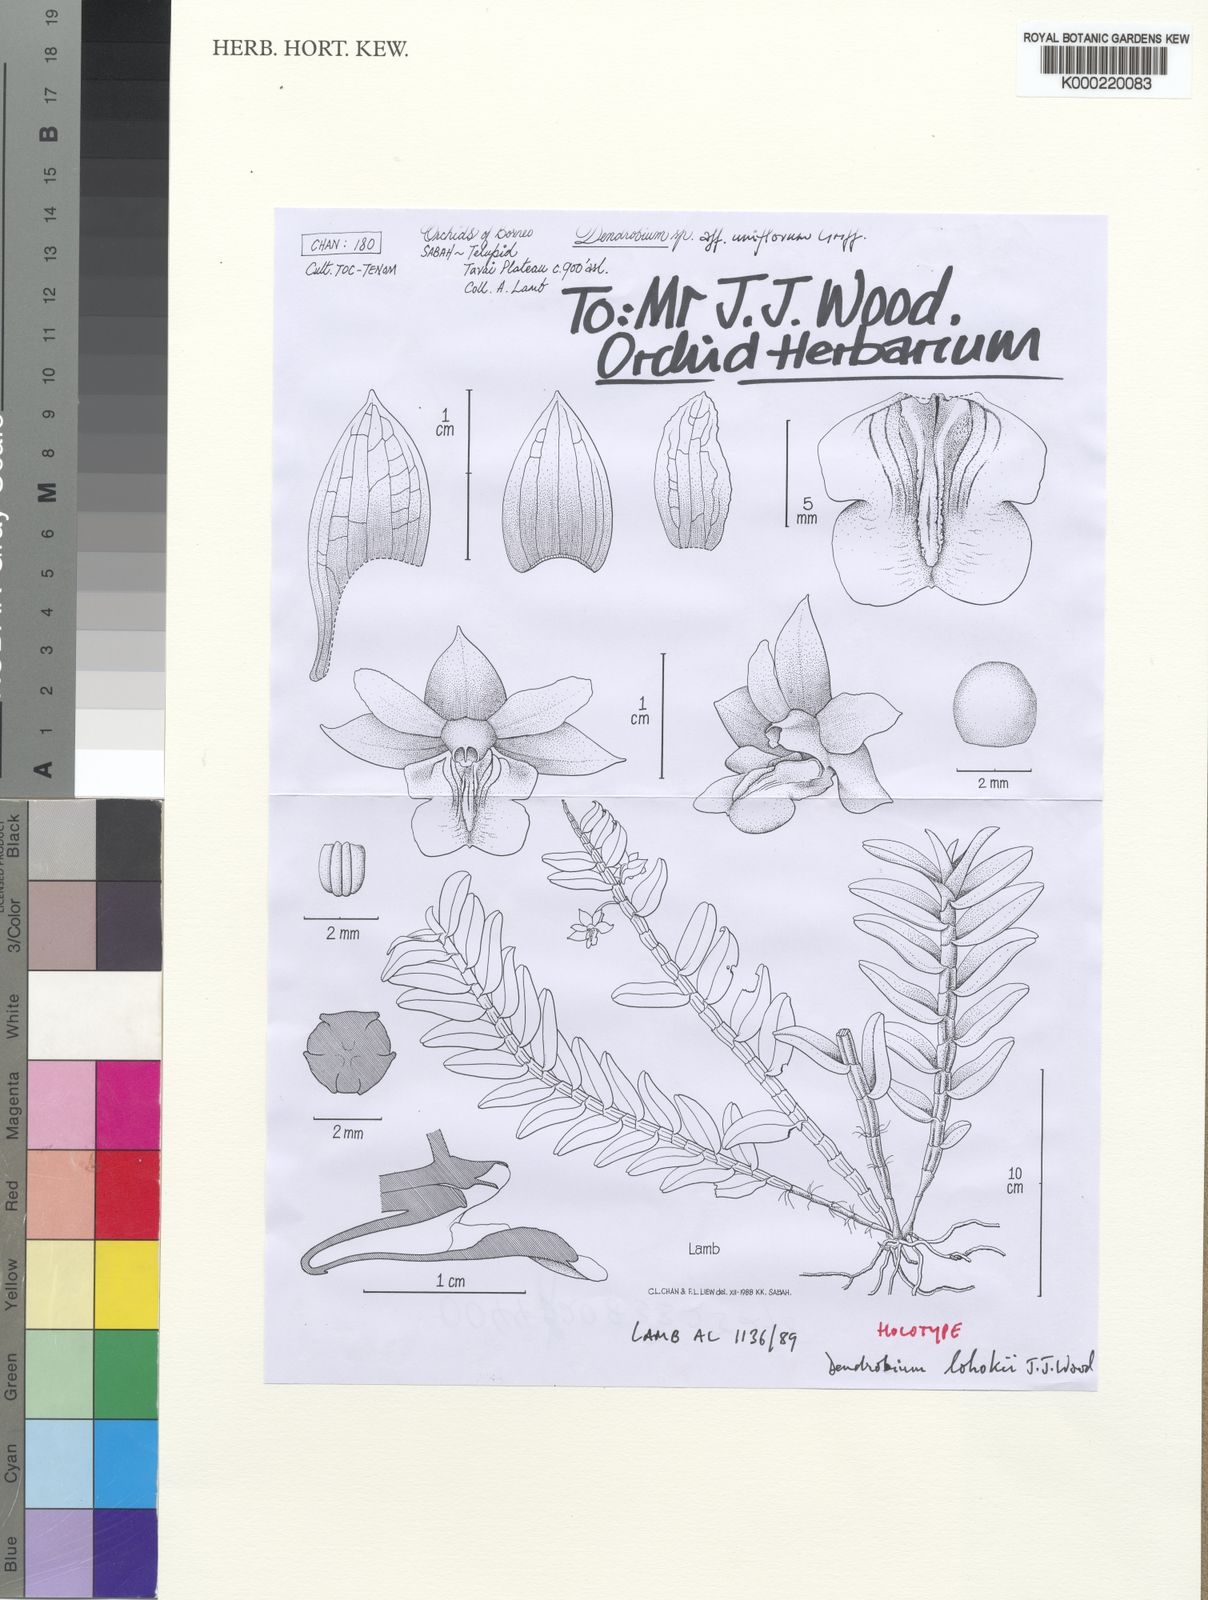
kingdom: Plantae
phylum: Tracheophyta
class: Liliopsida
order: Asparagales
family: Orchidaceae
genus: Dendrobium
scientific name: Dendrobium lohokii
